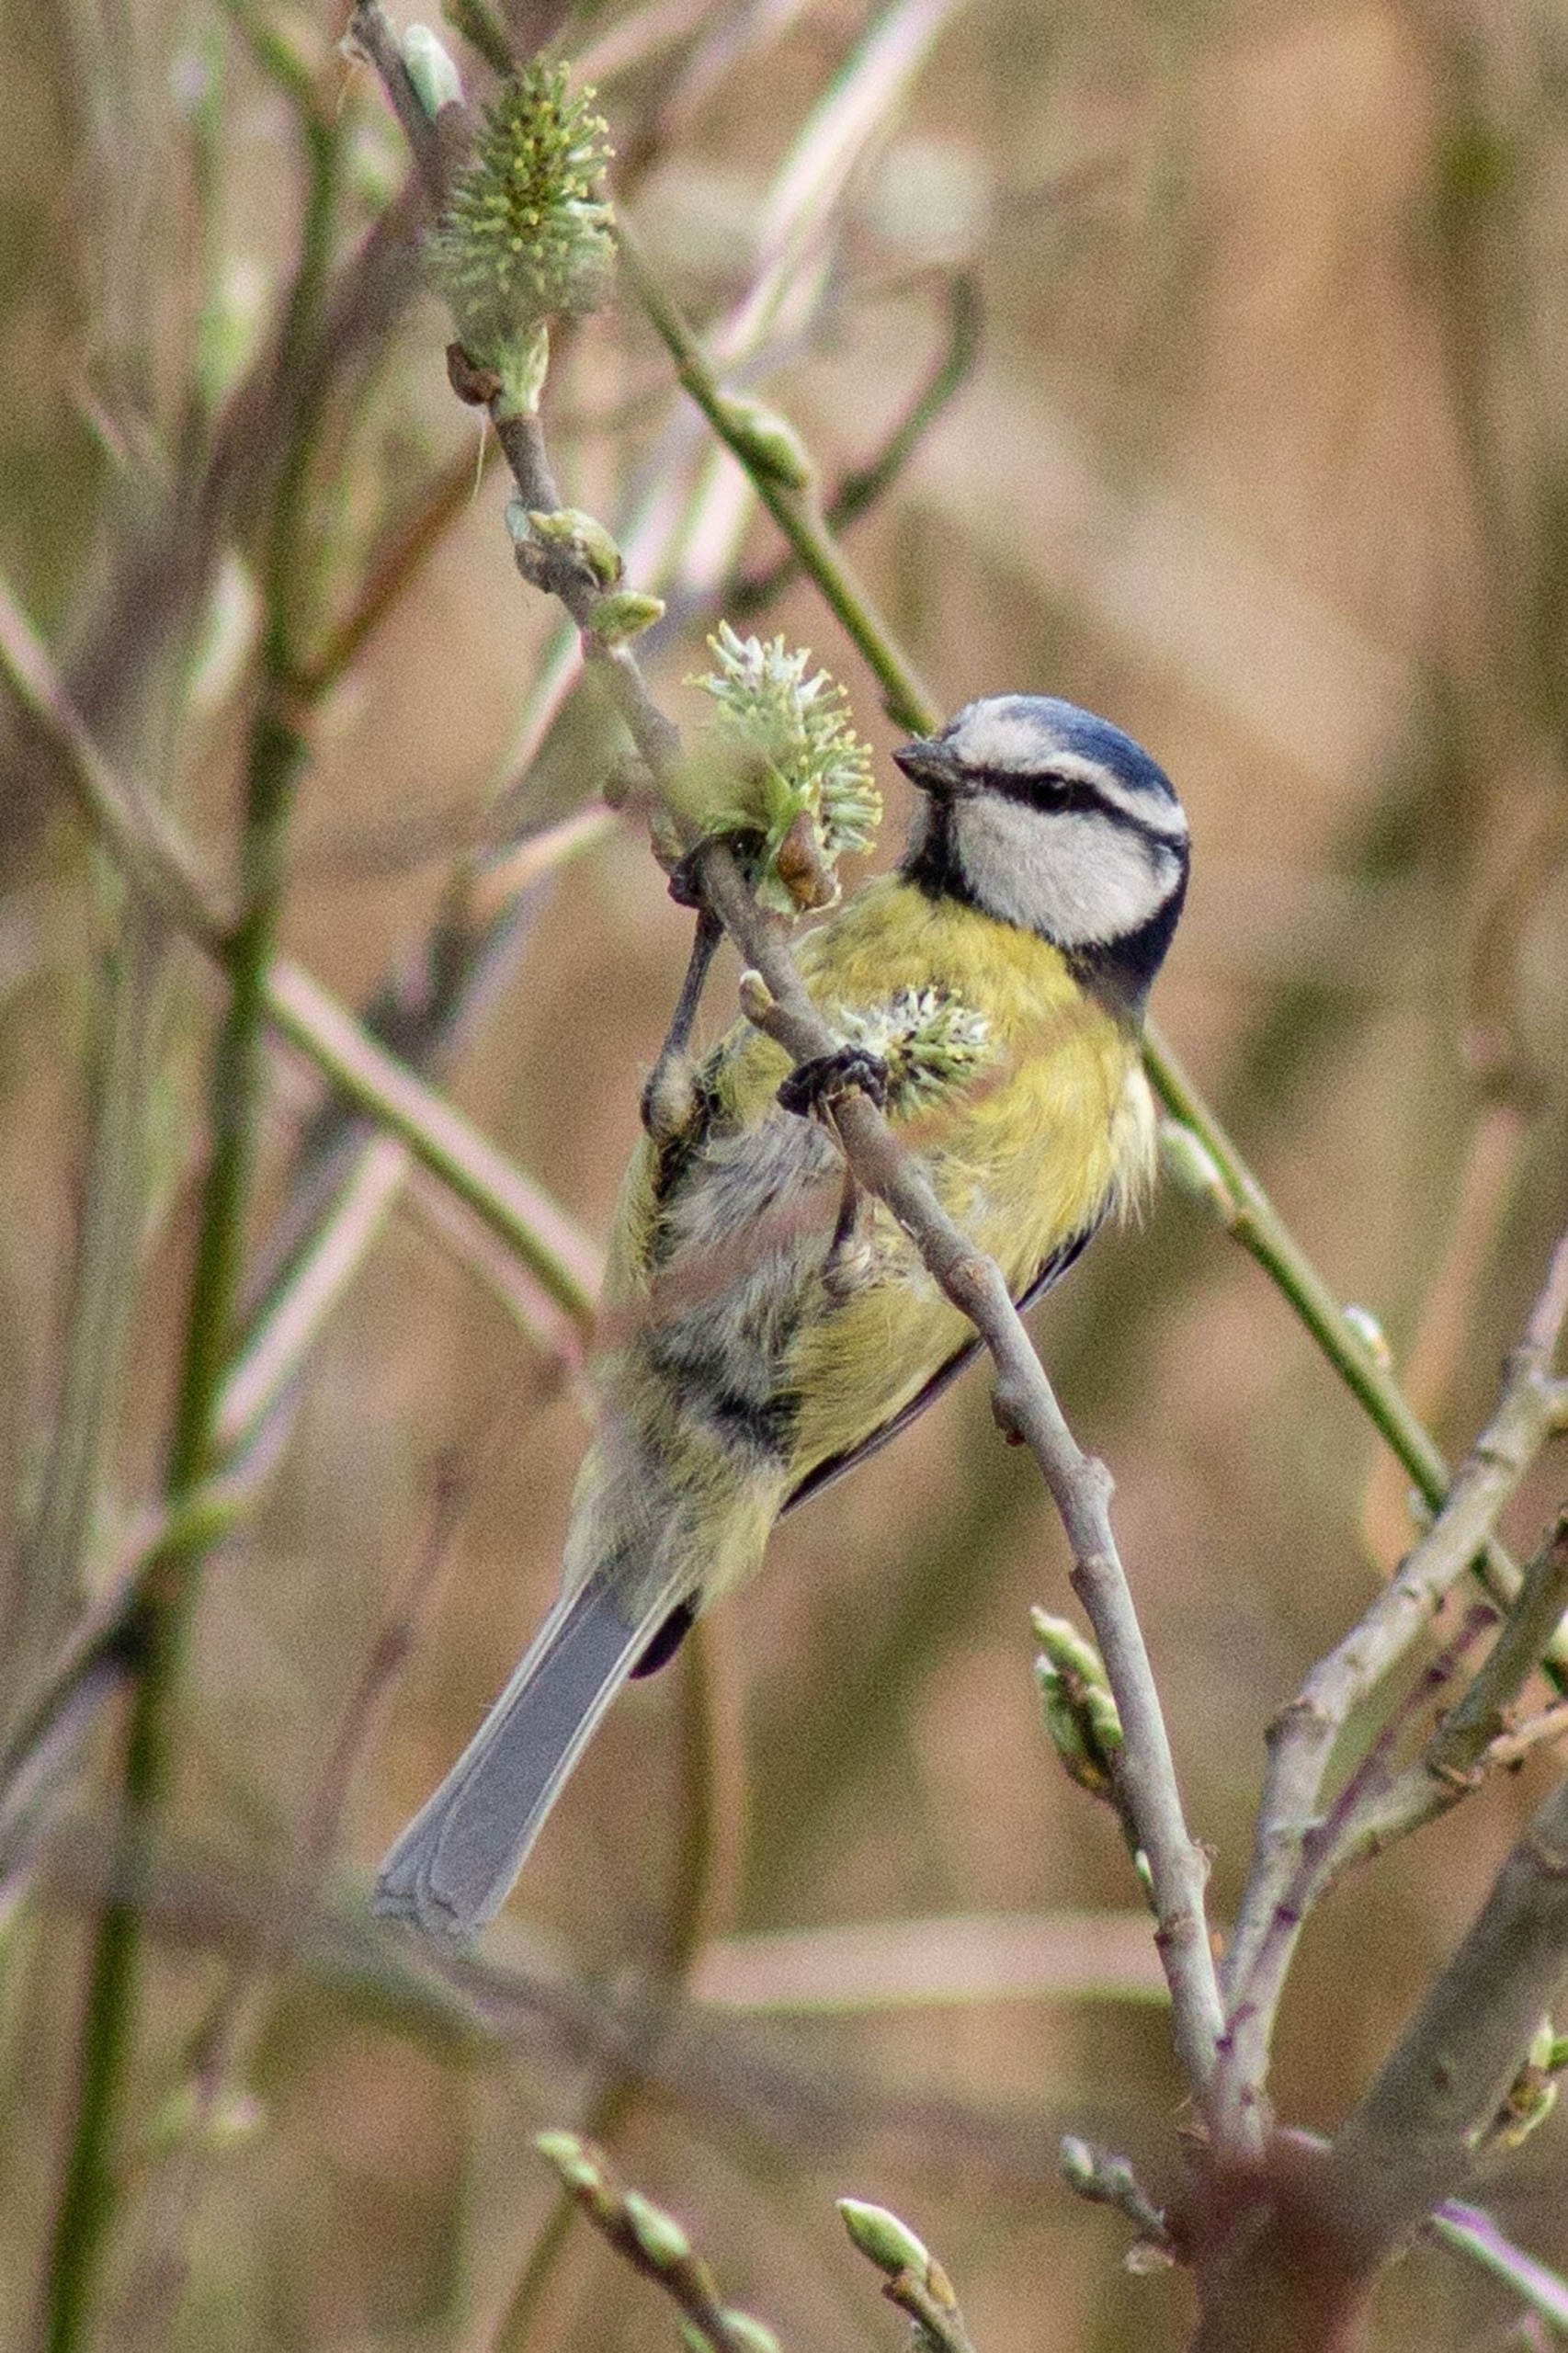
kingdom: Animalia
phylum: Chordata
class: Aves
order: Passeriformes
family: Paridae
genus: Cyanistes
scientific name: Cyanistes caeruleus
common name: Blåmejse
